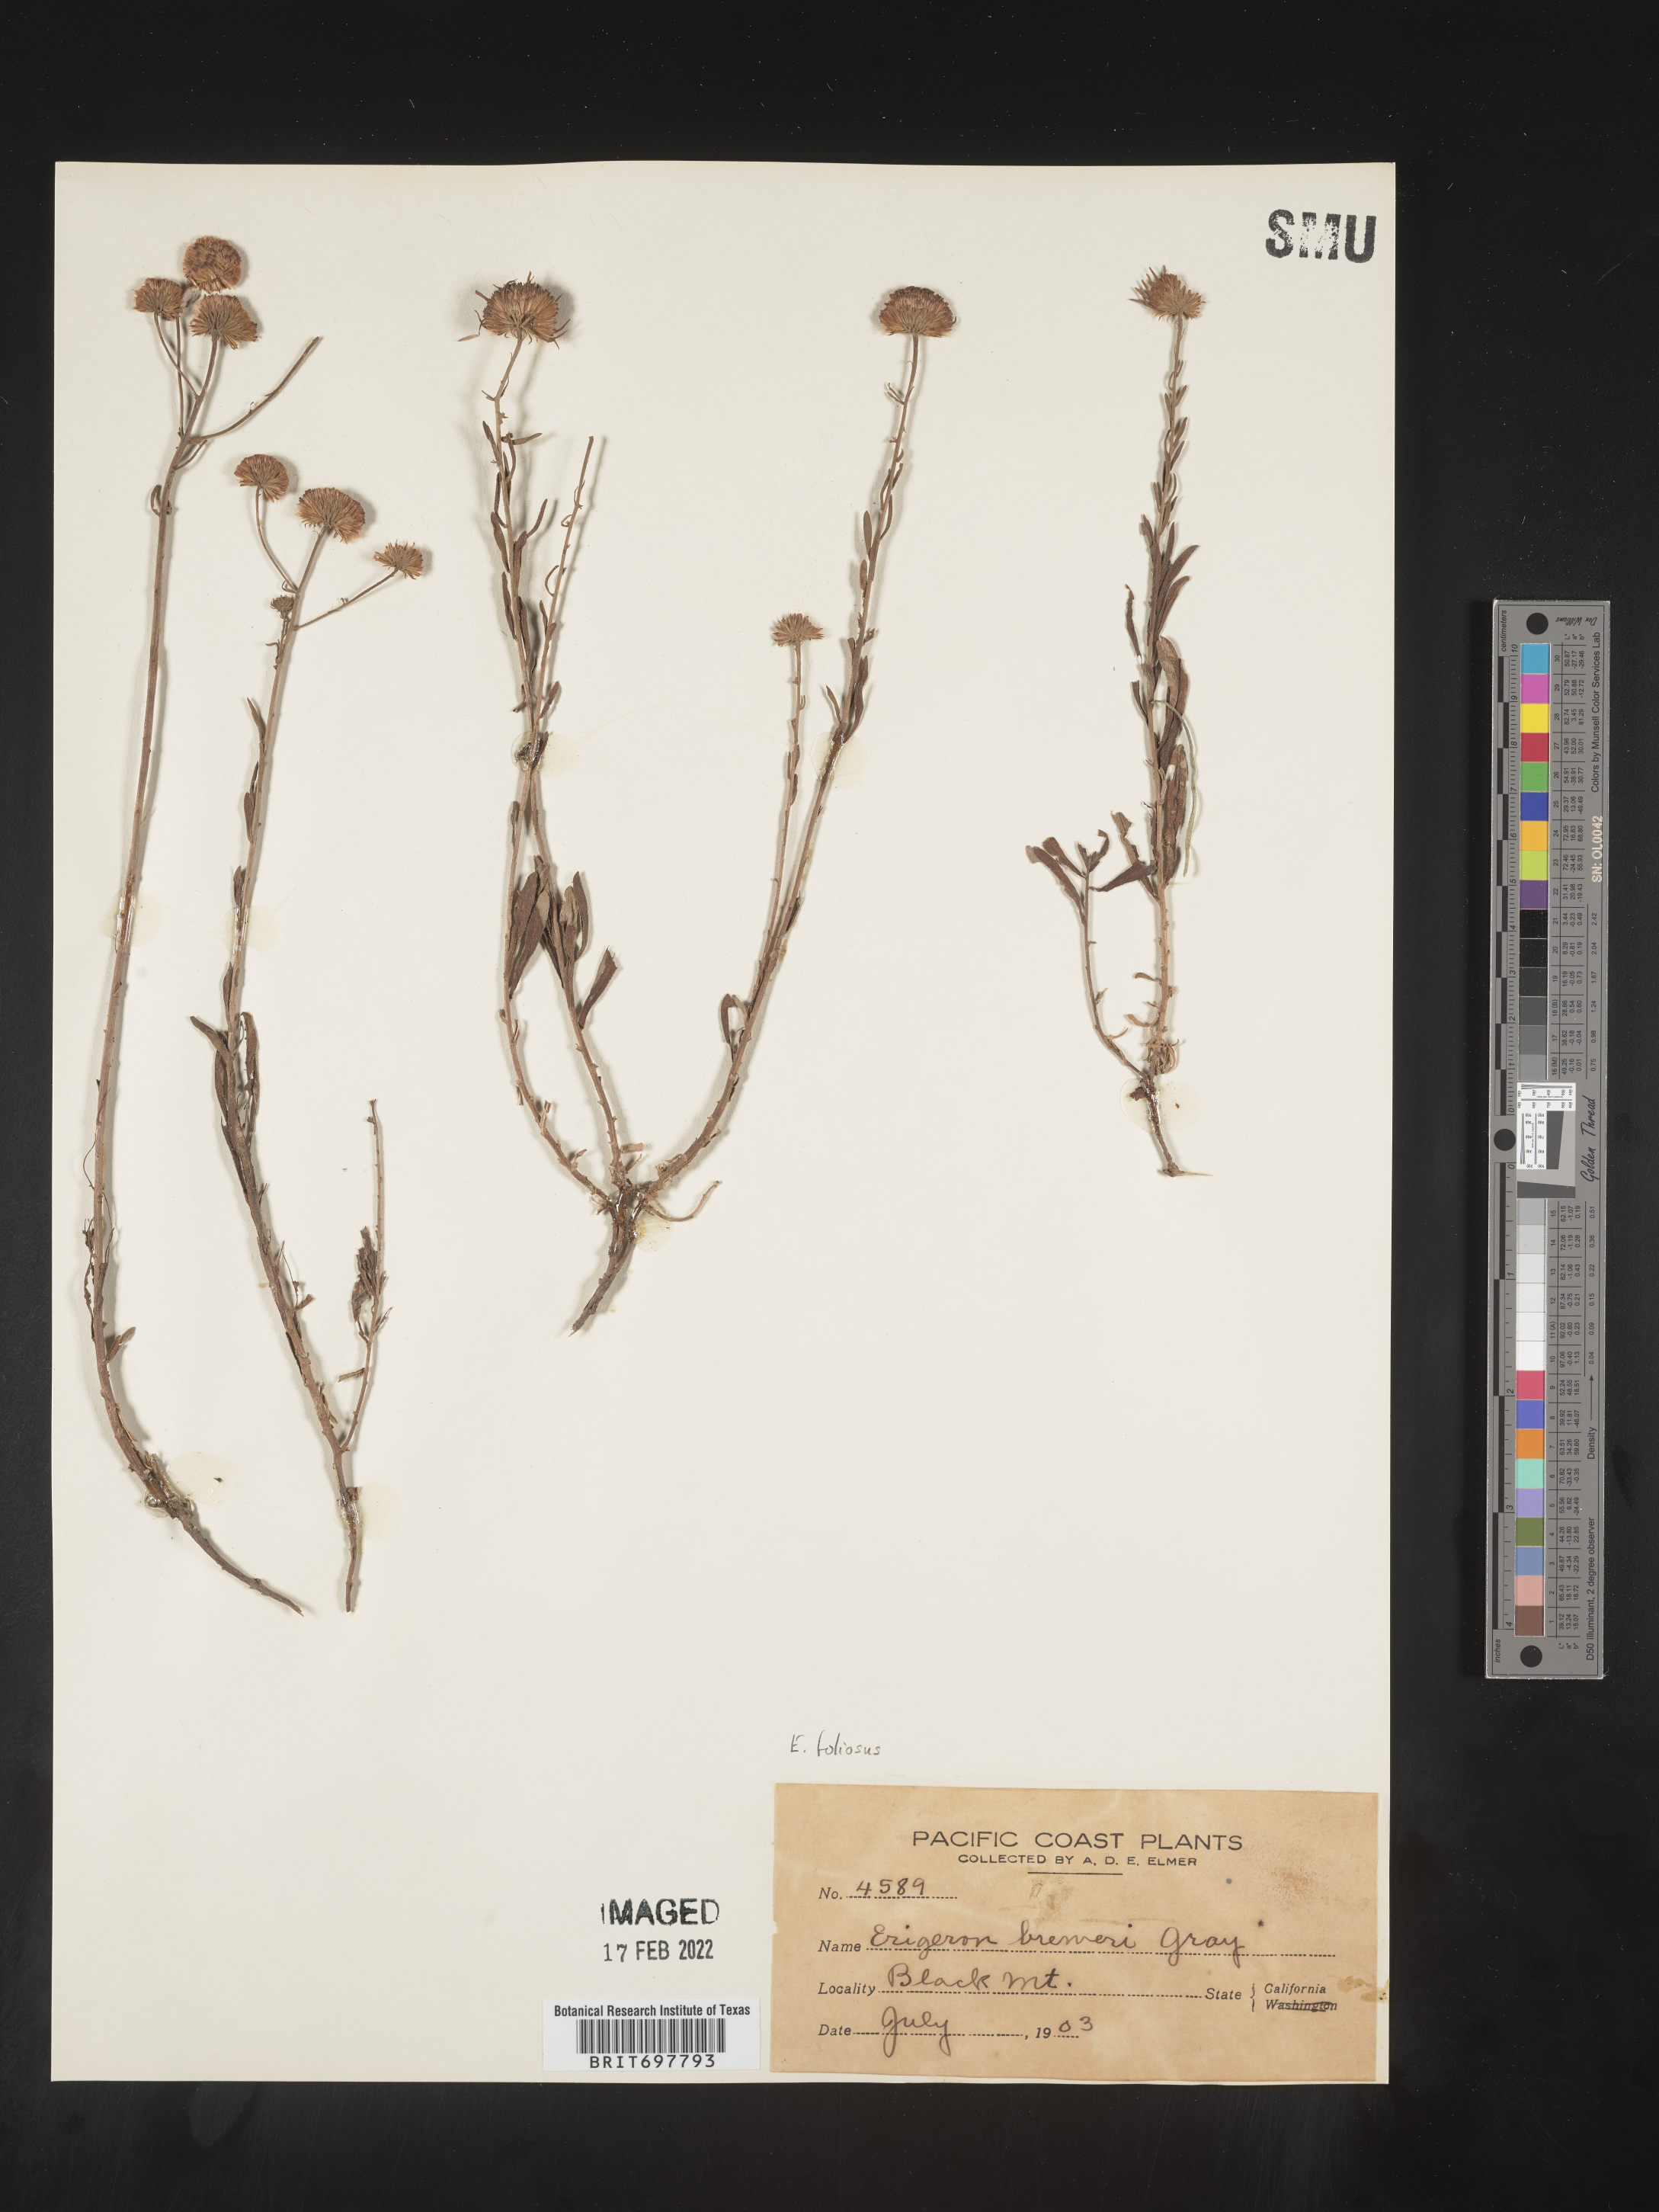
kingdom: Plantae
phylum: Tracheophyta
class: Magnoliopsida
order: Asterales
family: Asteraceae
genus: Erigeron
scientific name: Erigeron foliosus
